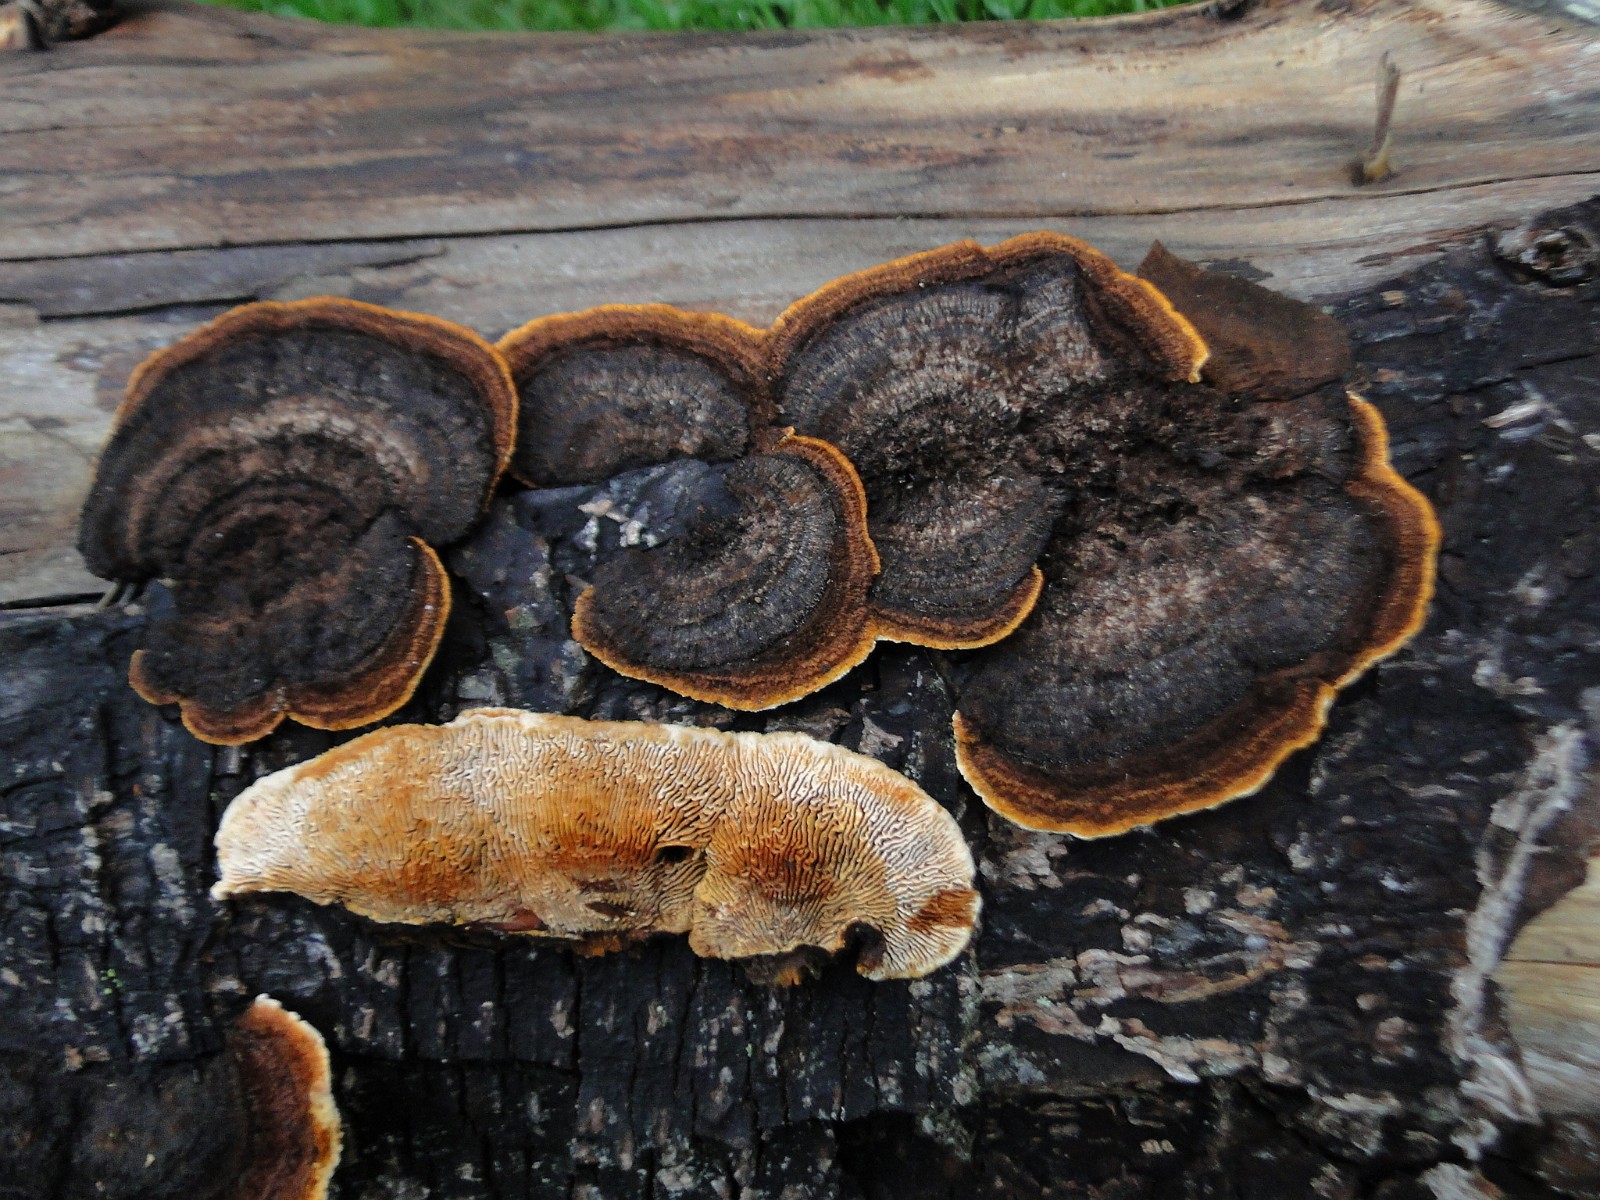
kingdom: Fungi
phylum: Basidiomycota
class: Agaricomycetes
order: Gloeophyllales
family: Gloeophyllaceae
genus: Gloeophyllum
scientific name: Gloeophyllum sepiarium
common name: fyrre-korkhat
